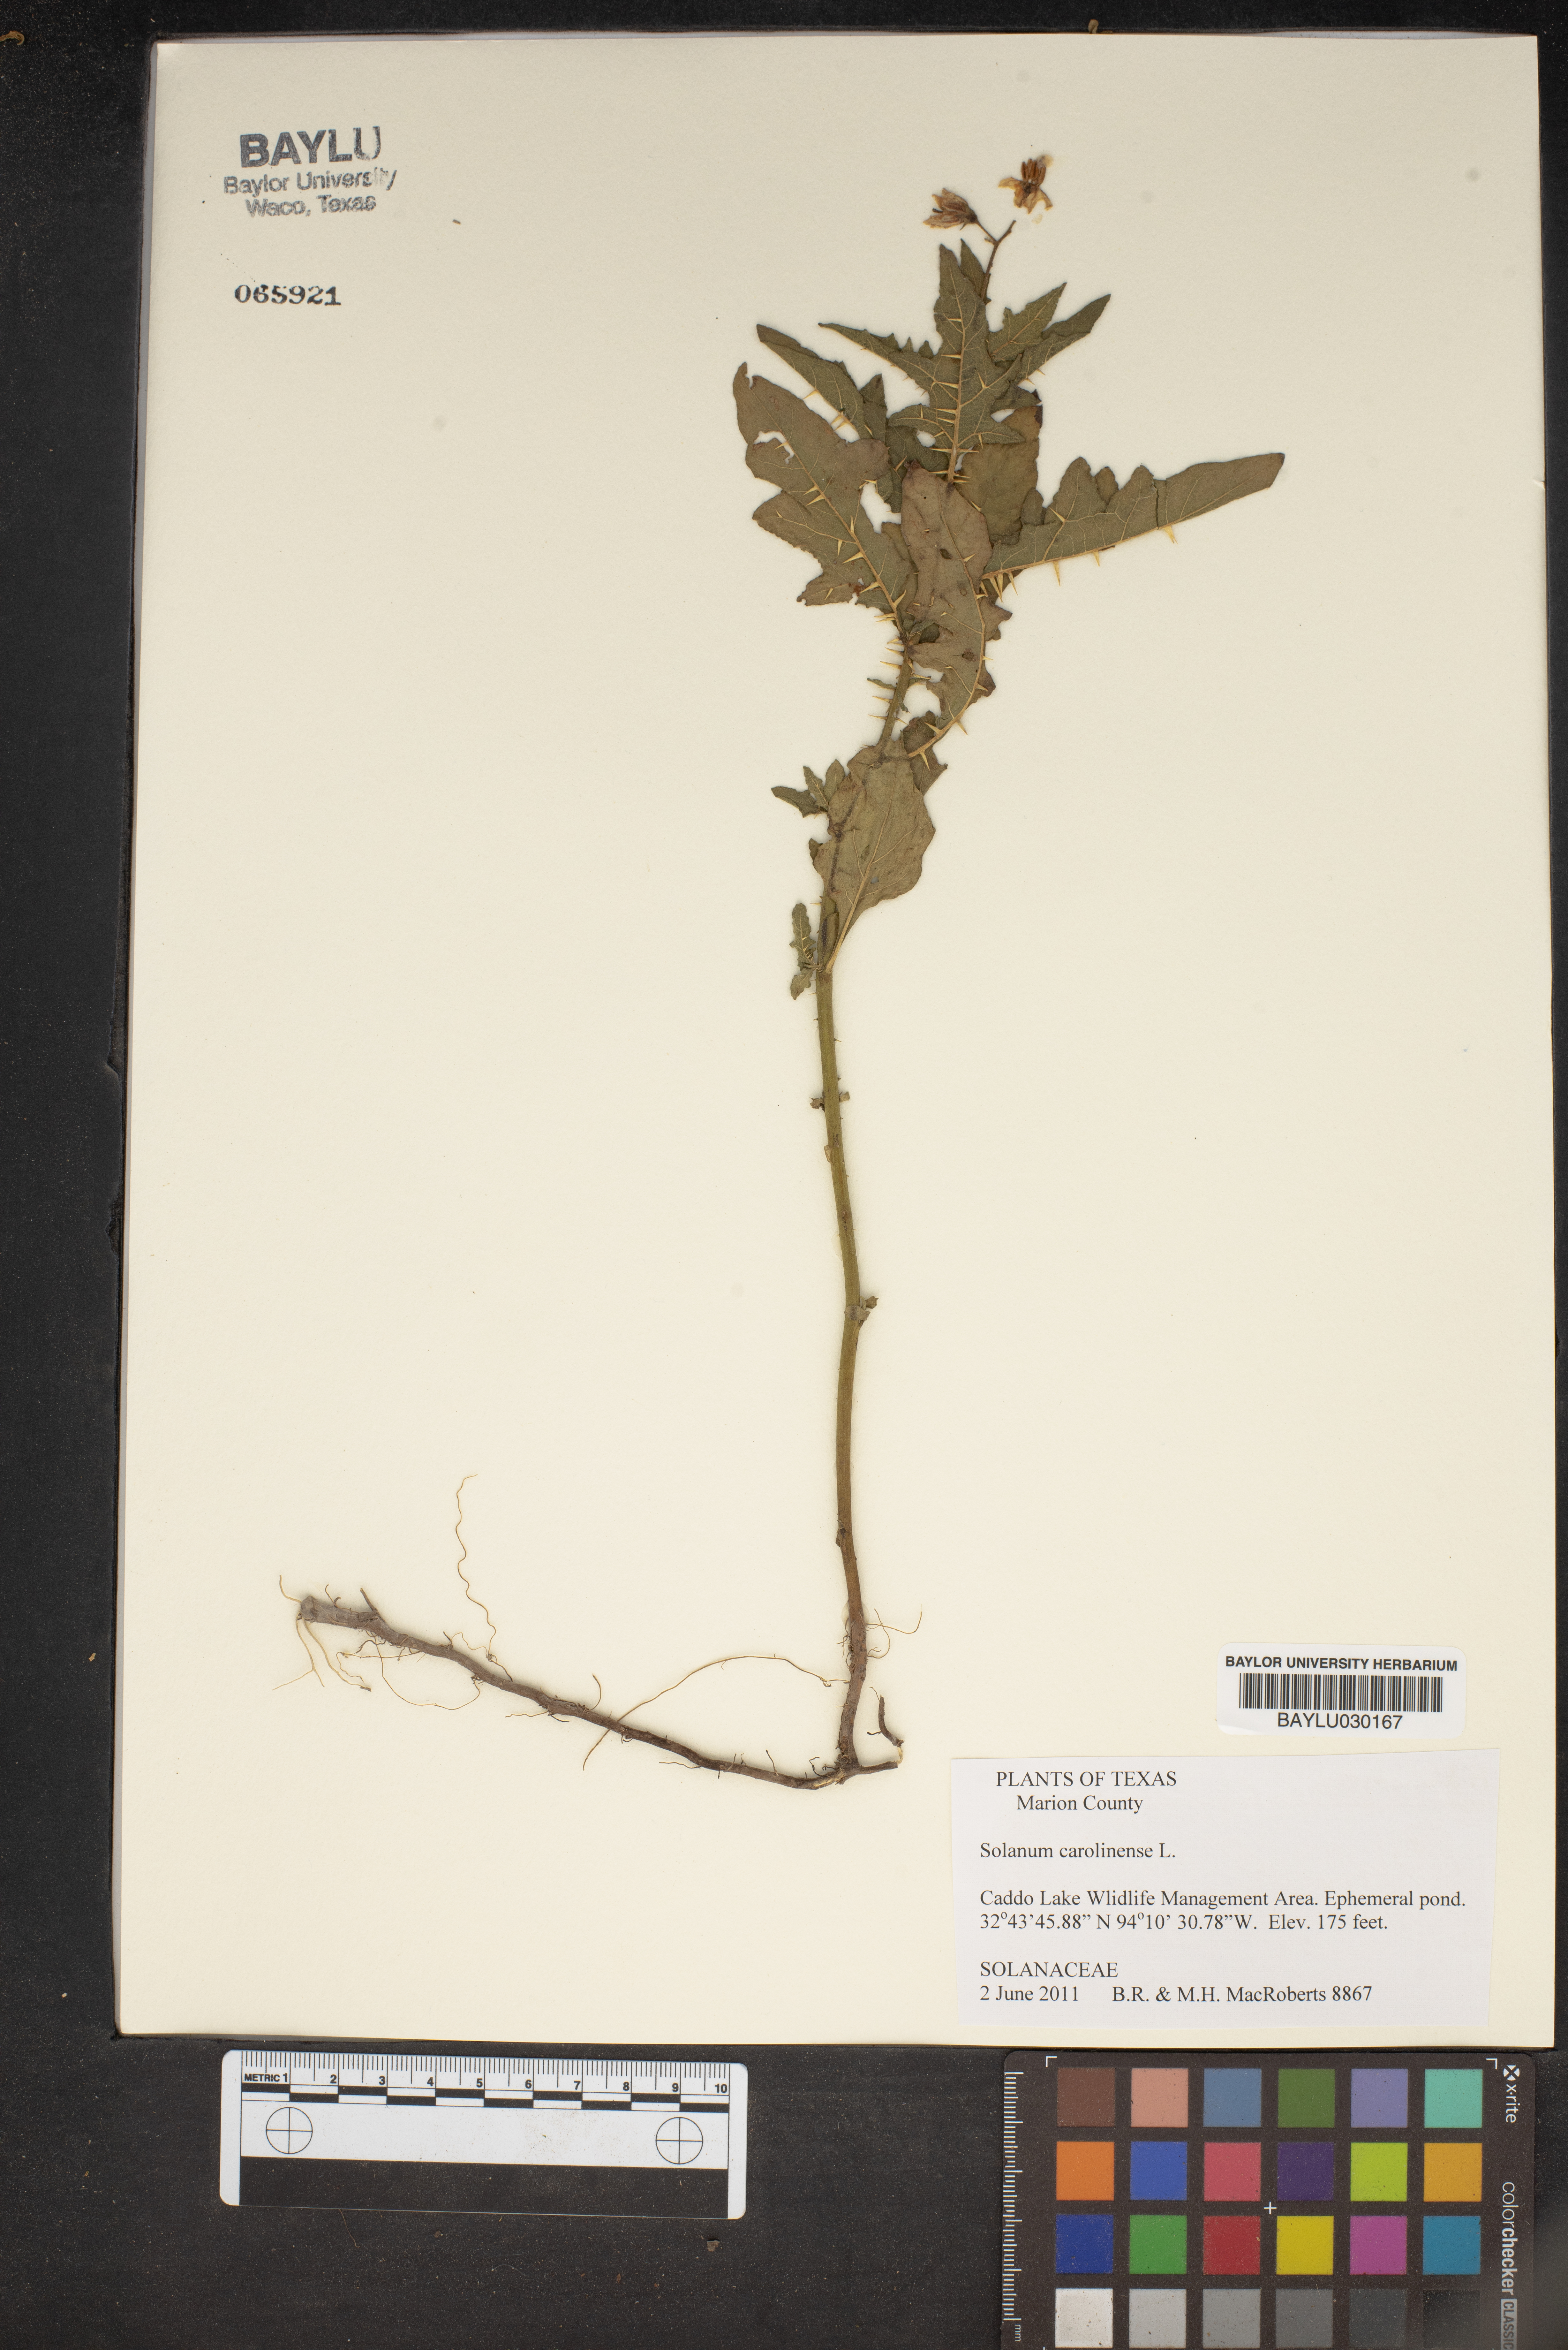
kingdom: Plantae
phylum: Tracheophyta
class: Magnoliopsida
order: Solanales
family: Solanaceae
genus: Solanum
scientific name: Solanum houstonii
